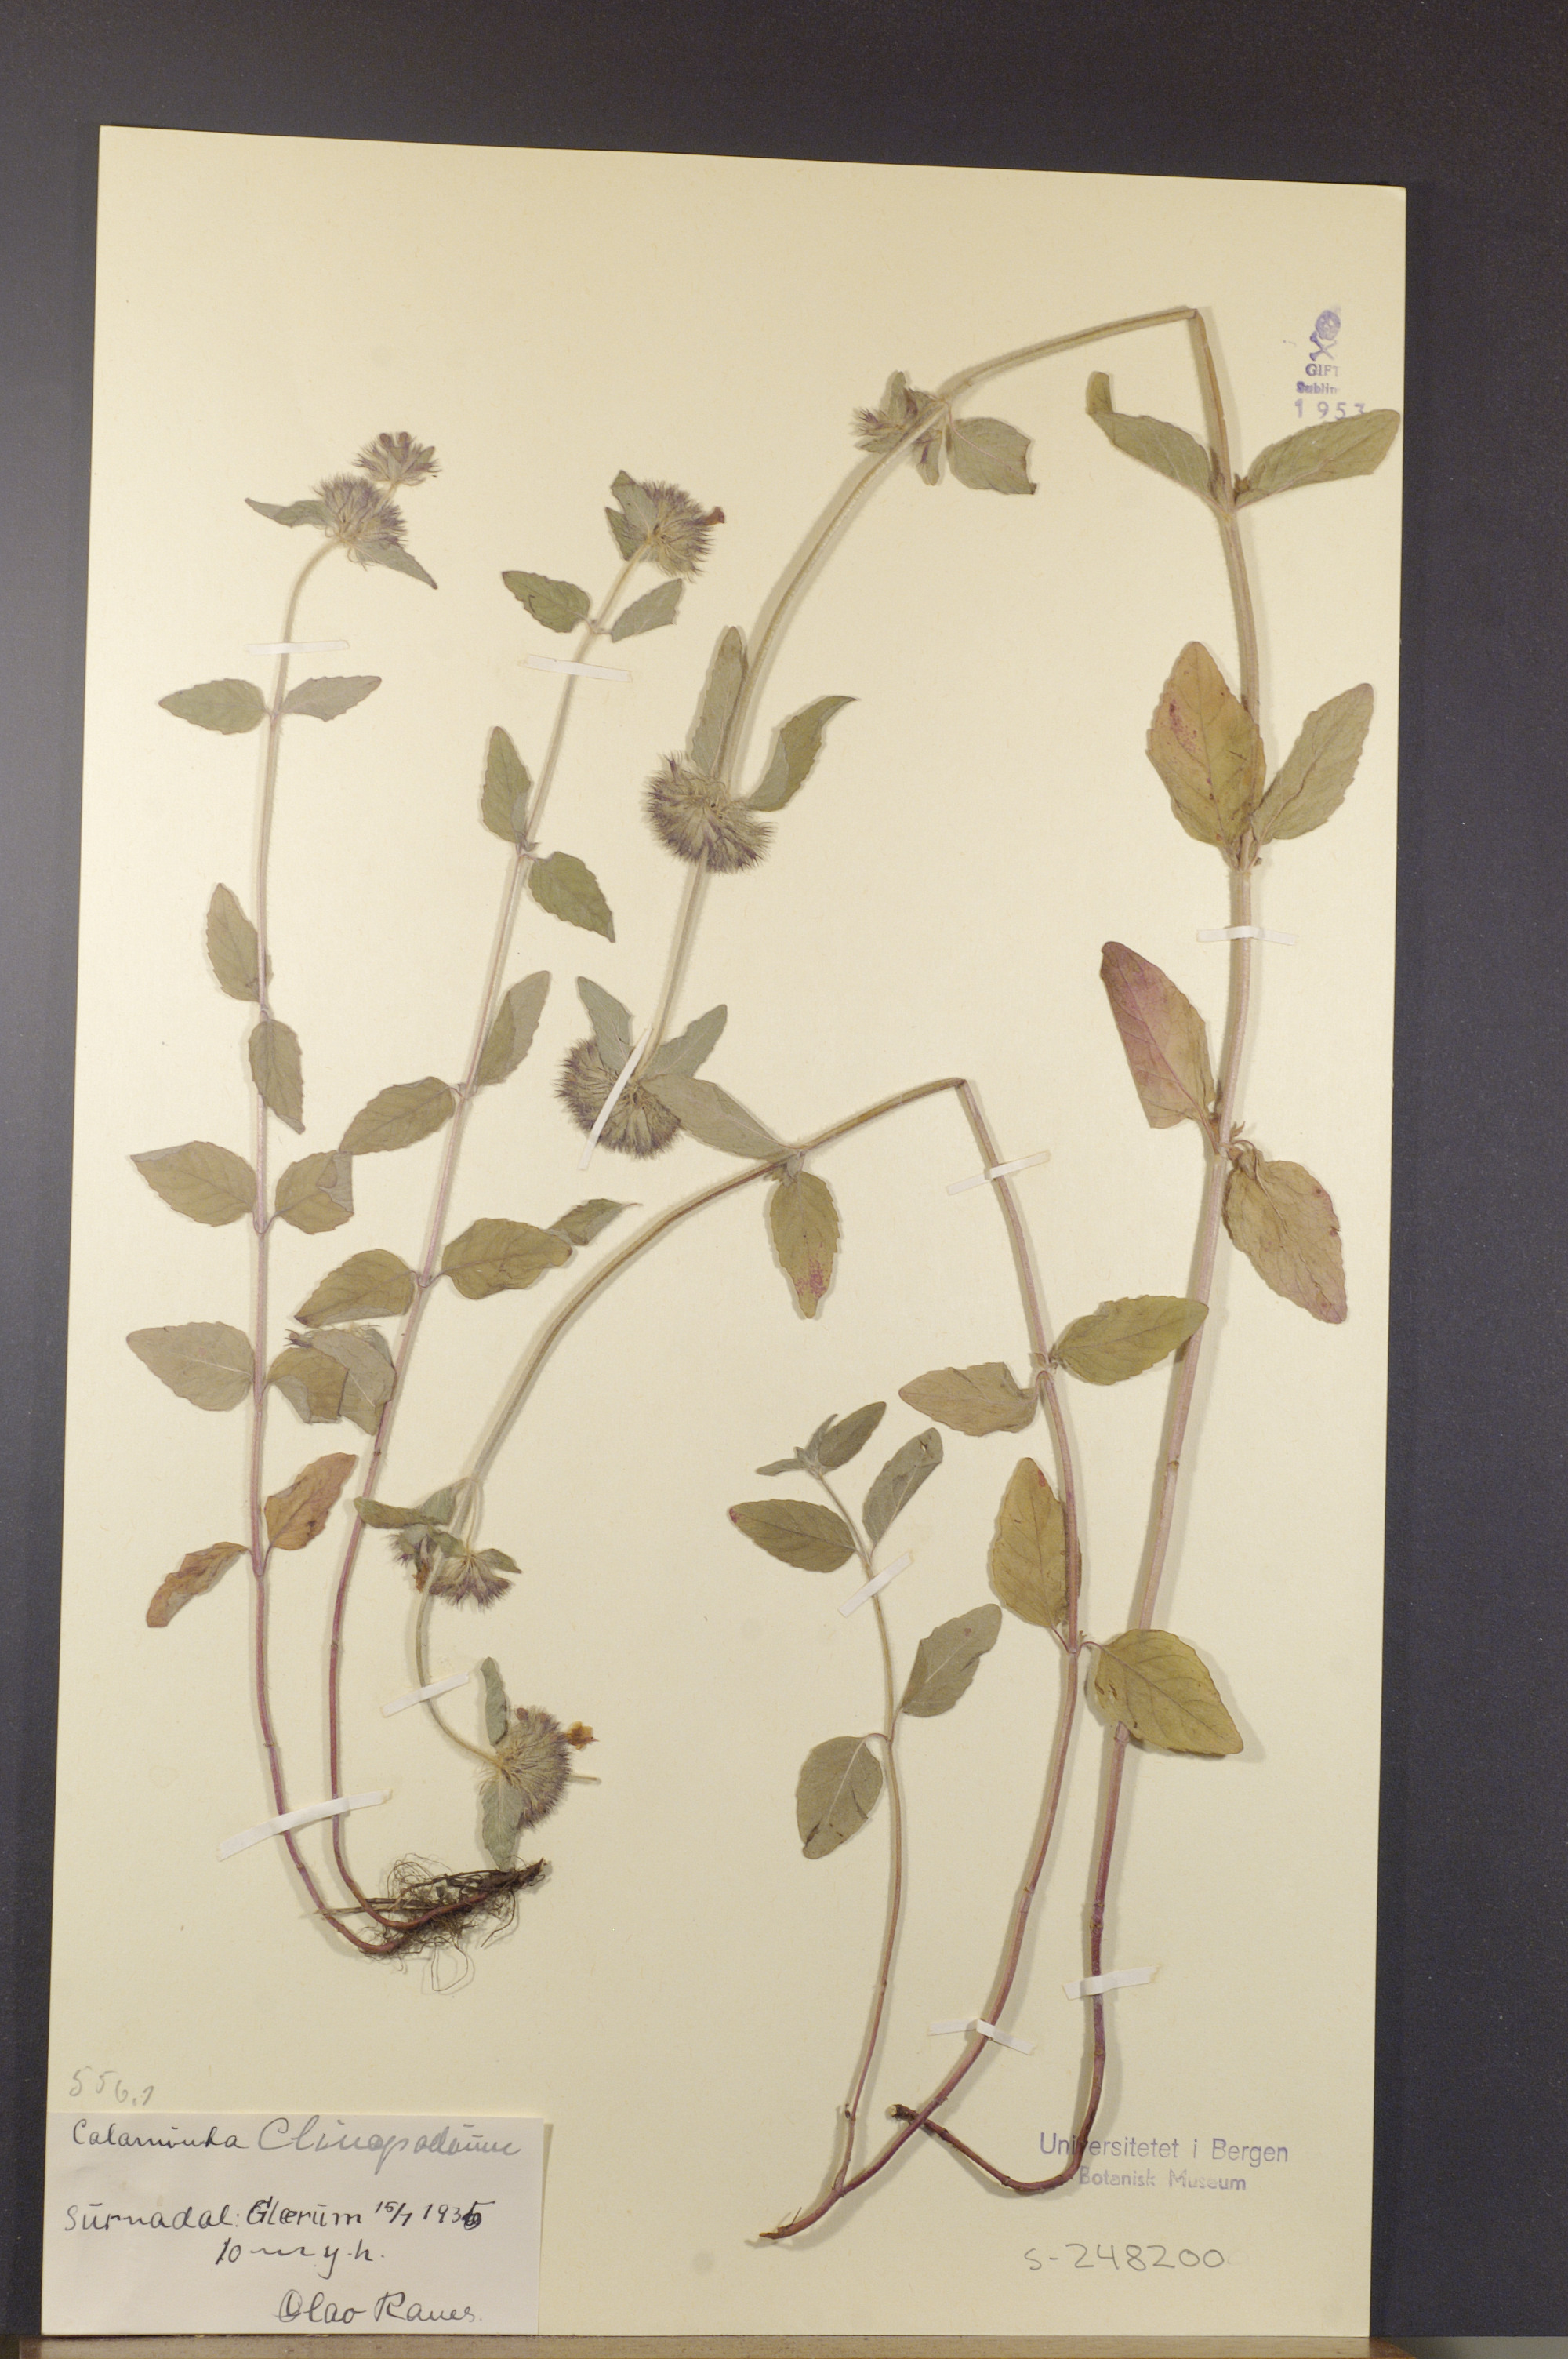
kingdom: Plantae
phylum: Tracheophyta
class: Magnoliopsida
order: Lamiales
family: Lamiaceae
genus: Clinopodium
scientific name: Clinopodium vulgare
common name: Wild basil
